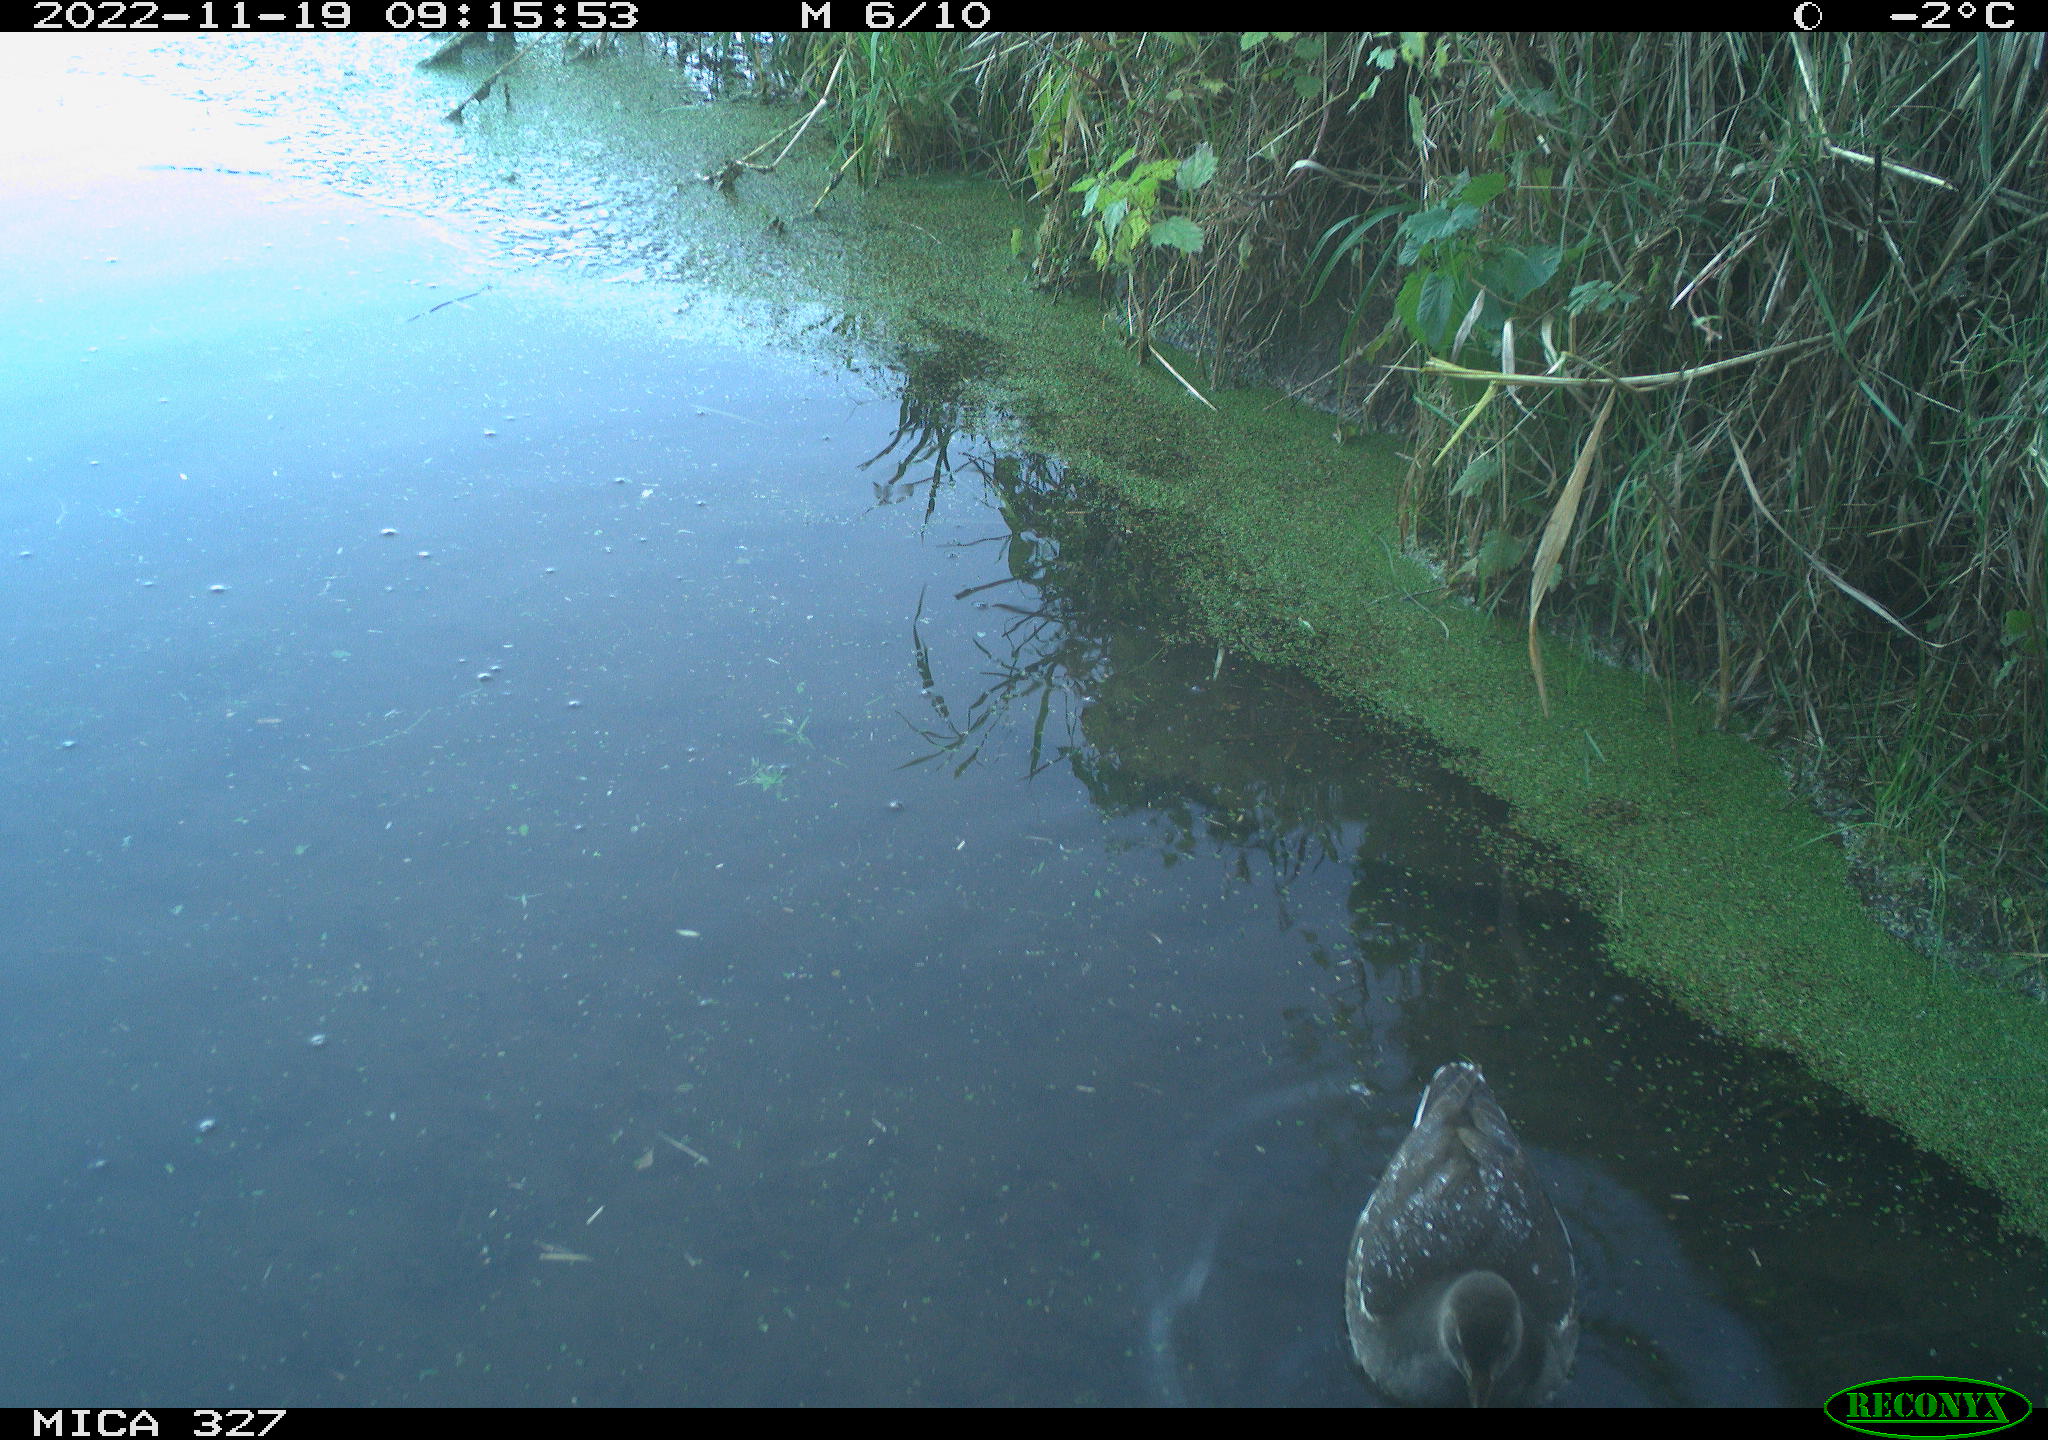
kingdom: Animalia
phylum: Chordata
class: Aves
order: Gruiformes
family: Rallidae
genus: Gallinula
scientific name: Gallinula chloropus
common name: Common moorhen
